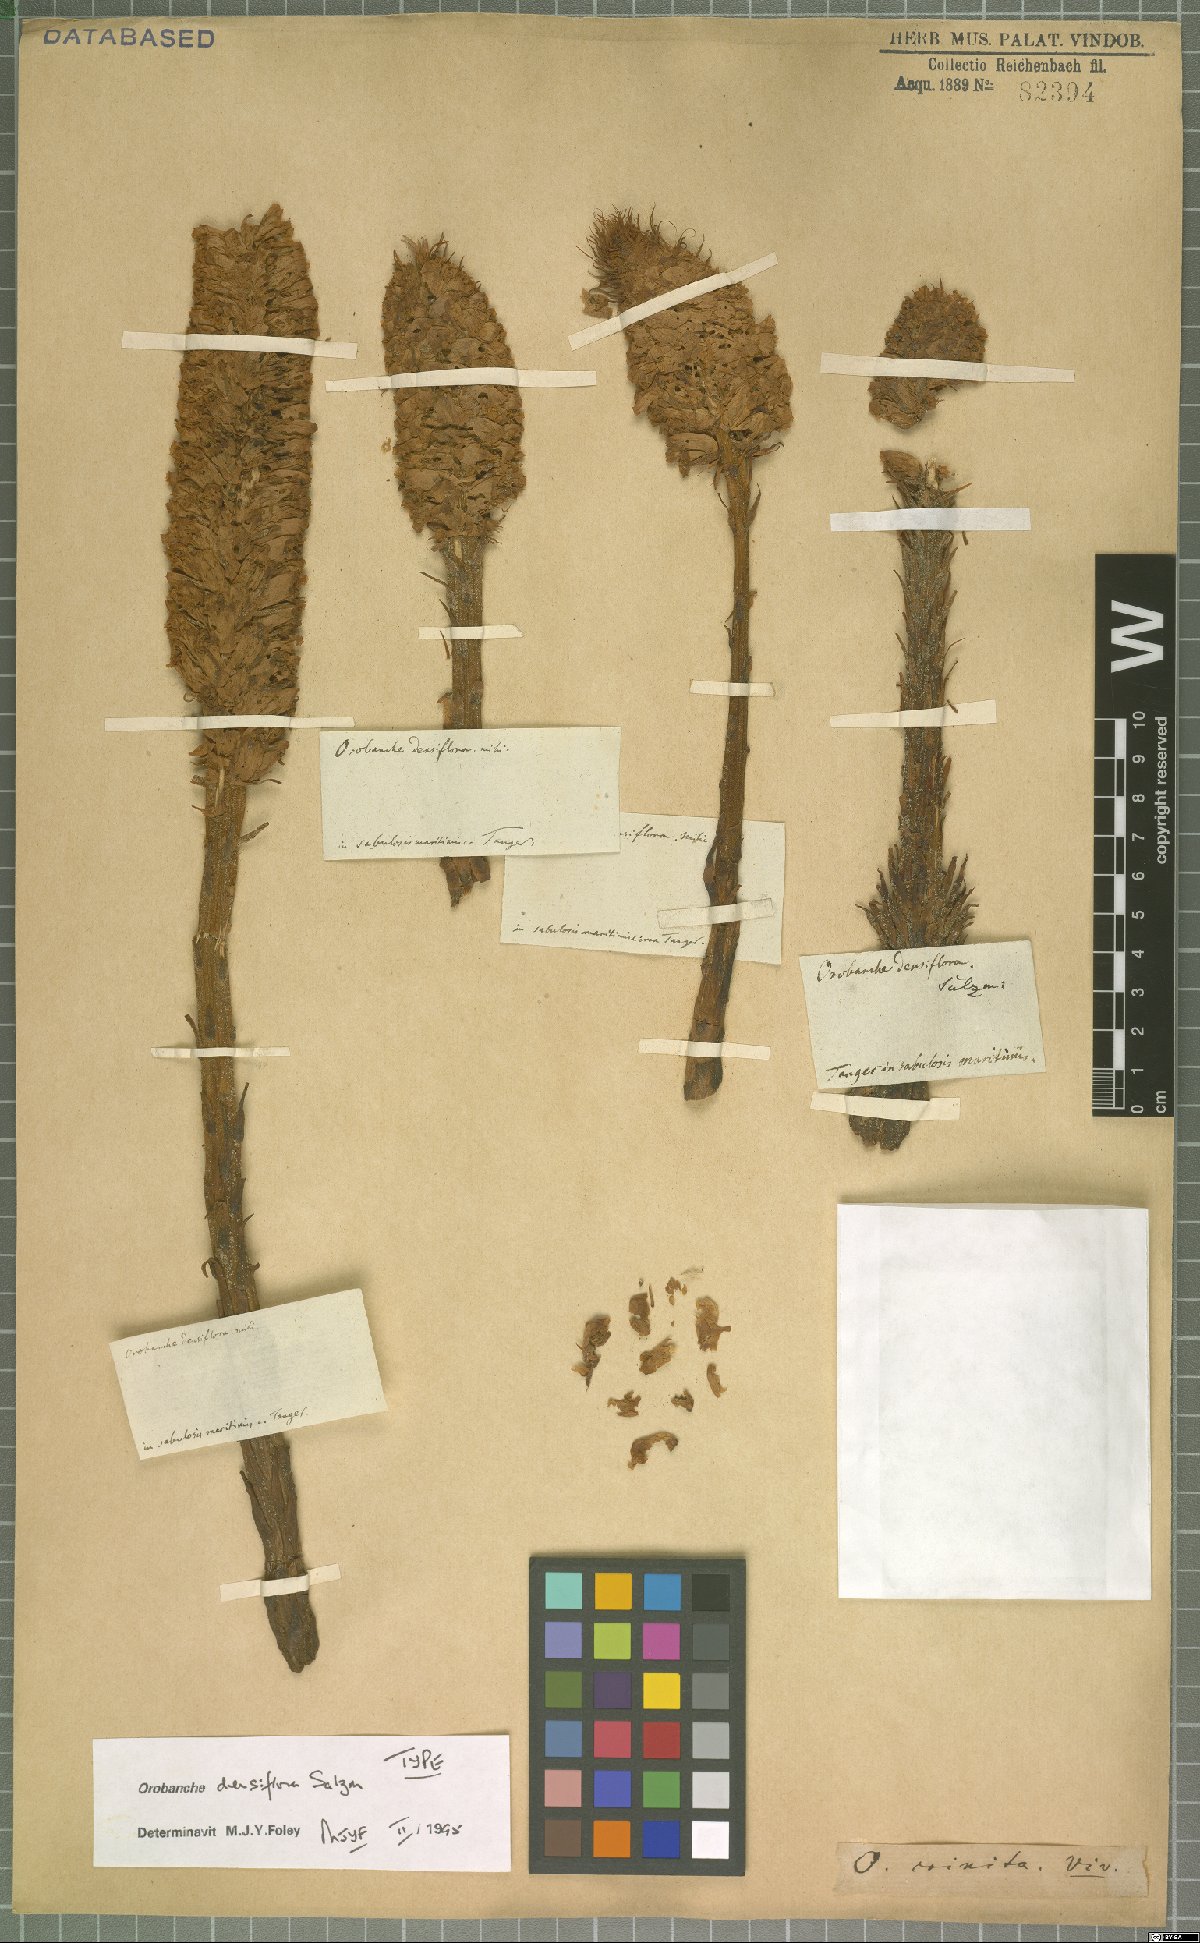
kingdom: Plantae
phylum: Tracheophyta
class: Magnoliopsida
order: Lamiales
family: Orobanchaceae
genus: Orobanche
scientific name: Orobanche densiflora
